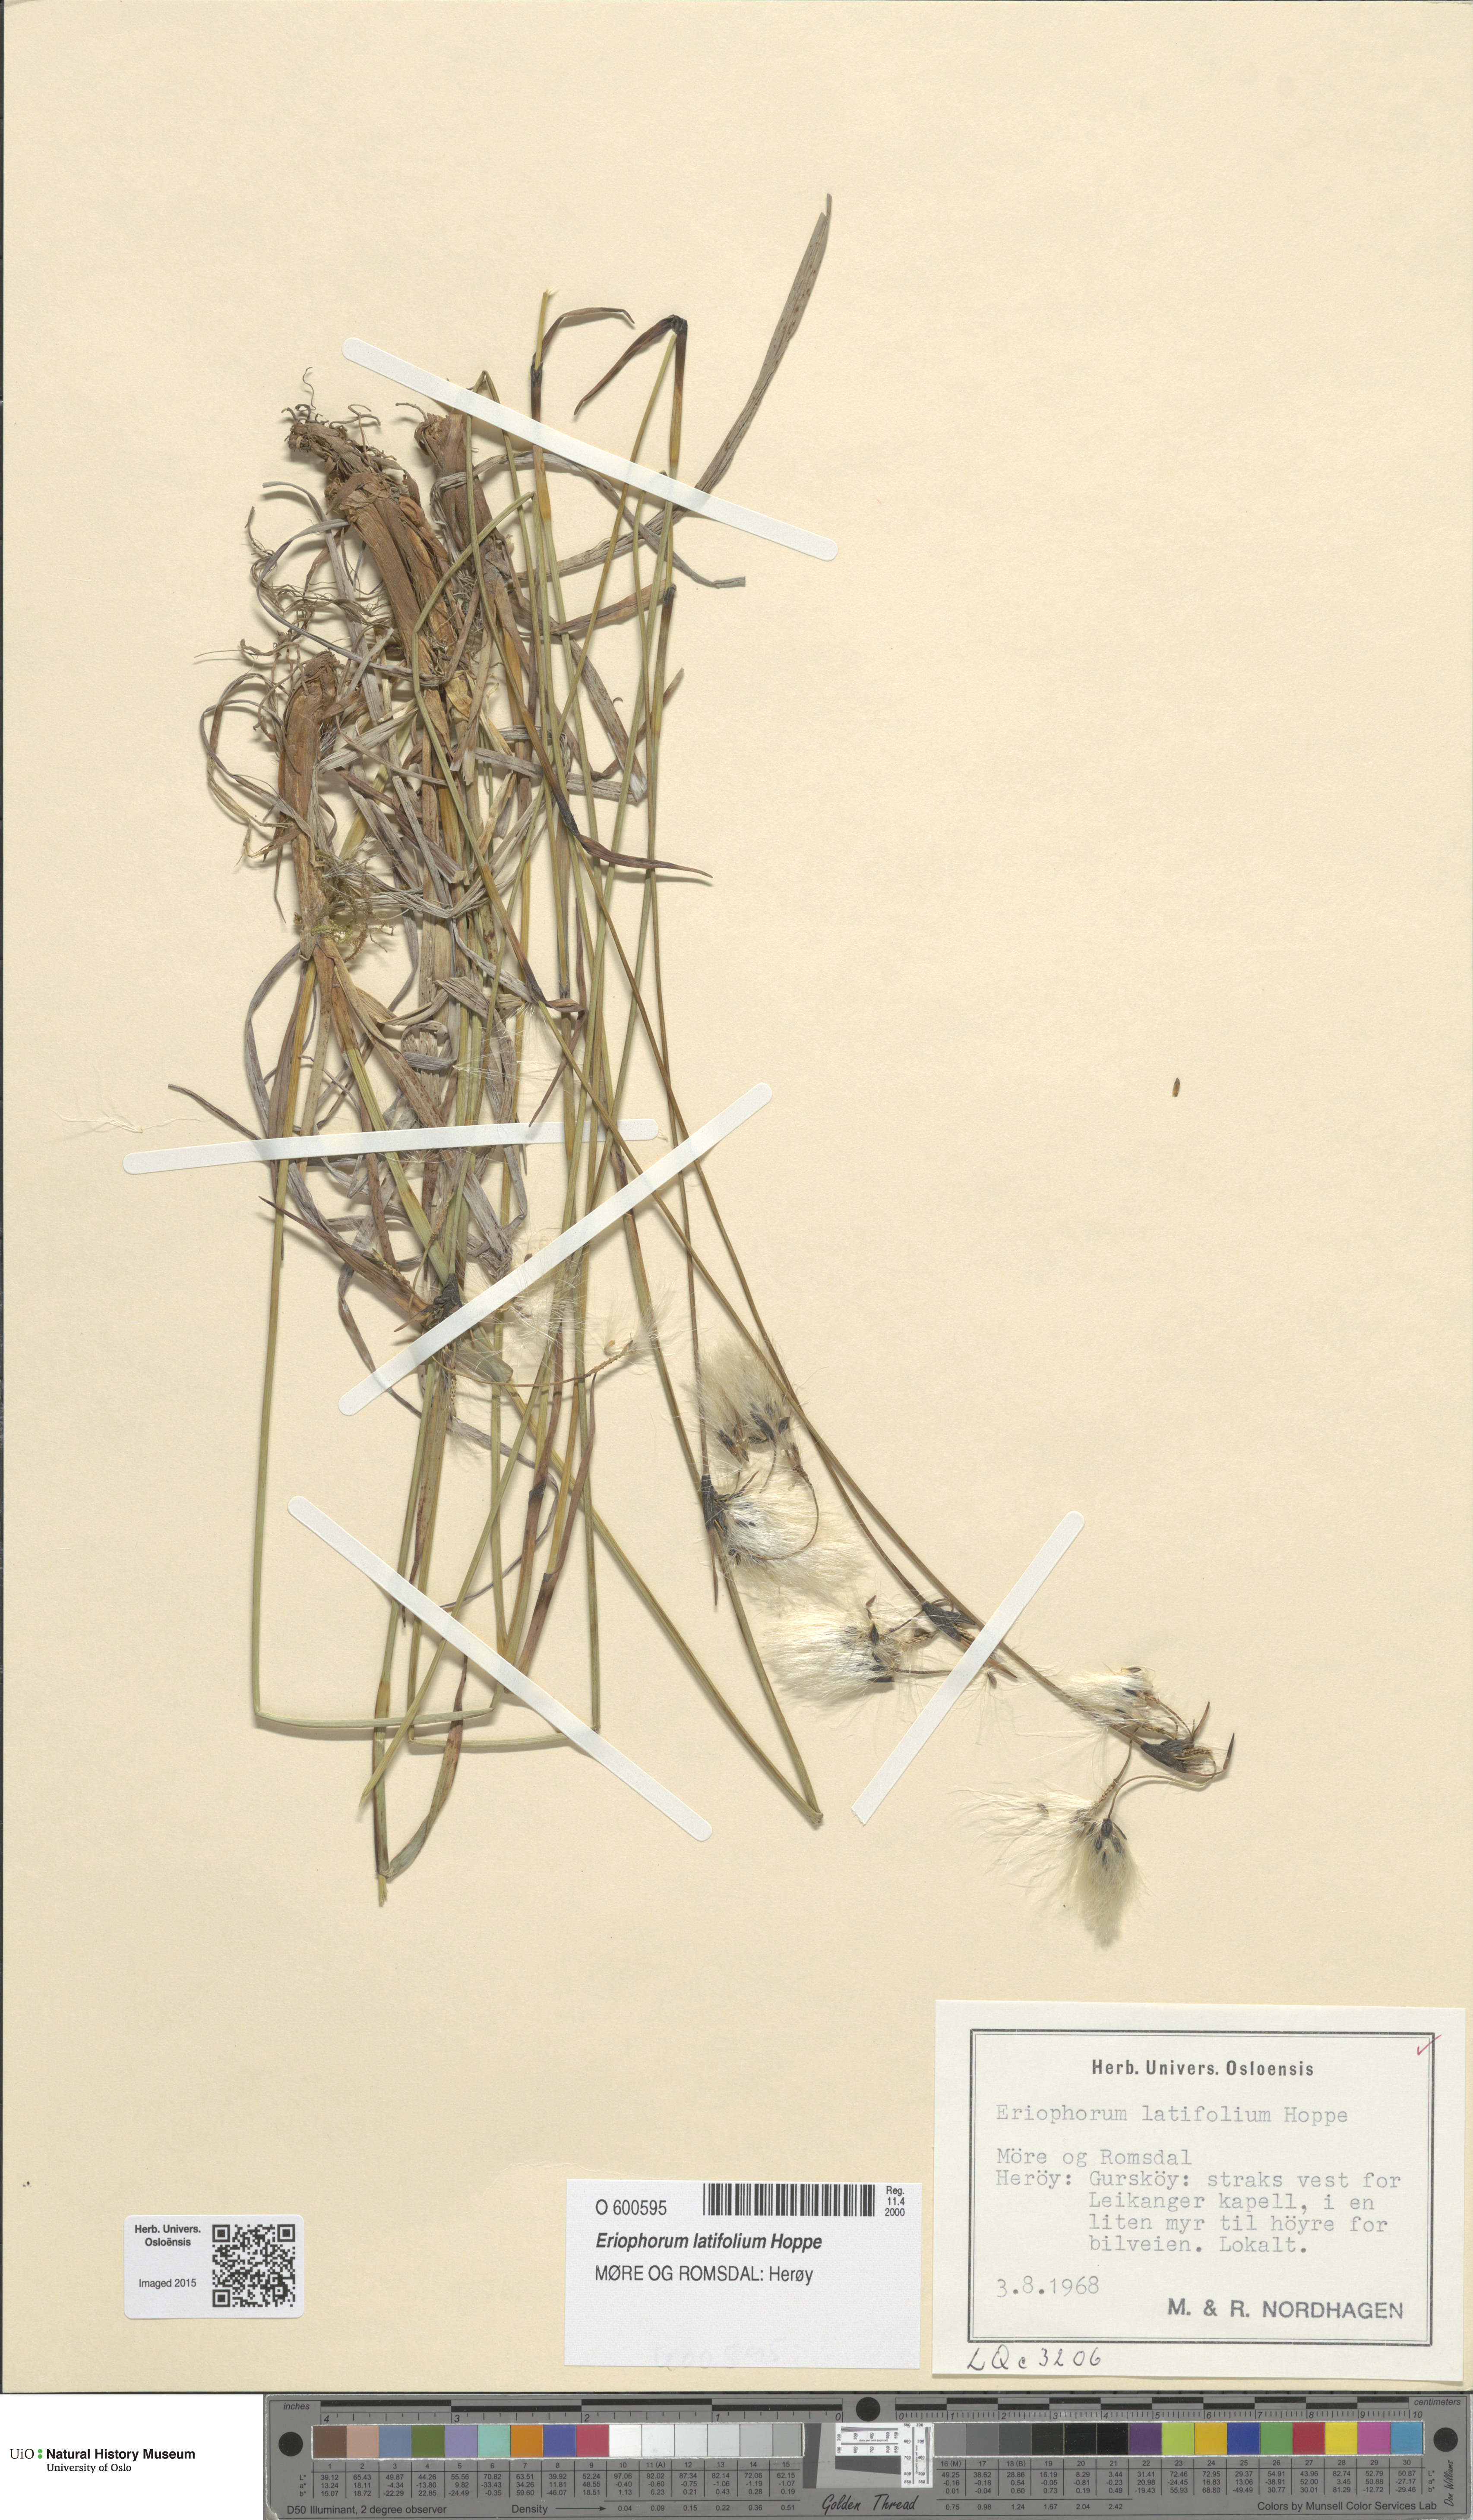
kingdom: Plantae
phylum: Tracheophyta
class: Liliopsida
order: Poales
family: Cyperaceae
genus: Eriophorum
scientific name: Eriophorum latifolium
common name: Broad-leaved cottongrass
